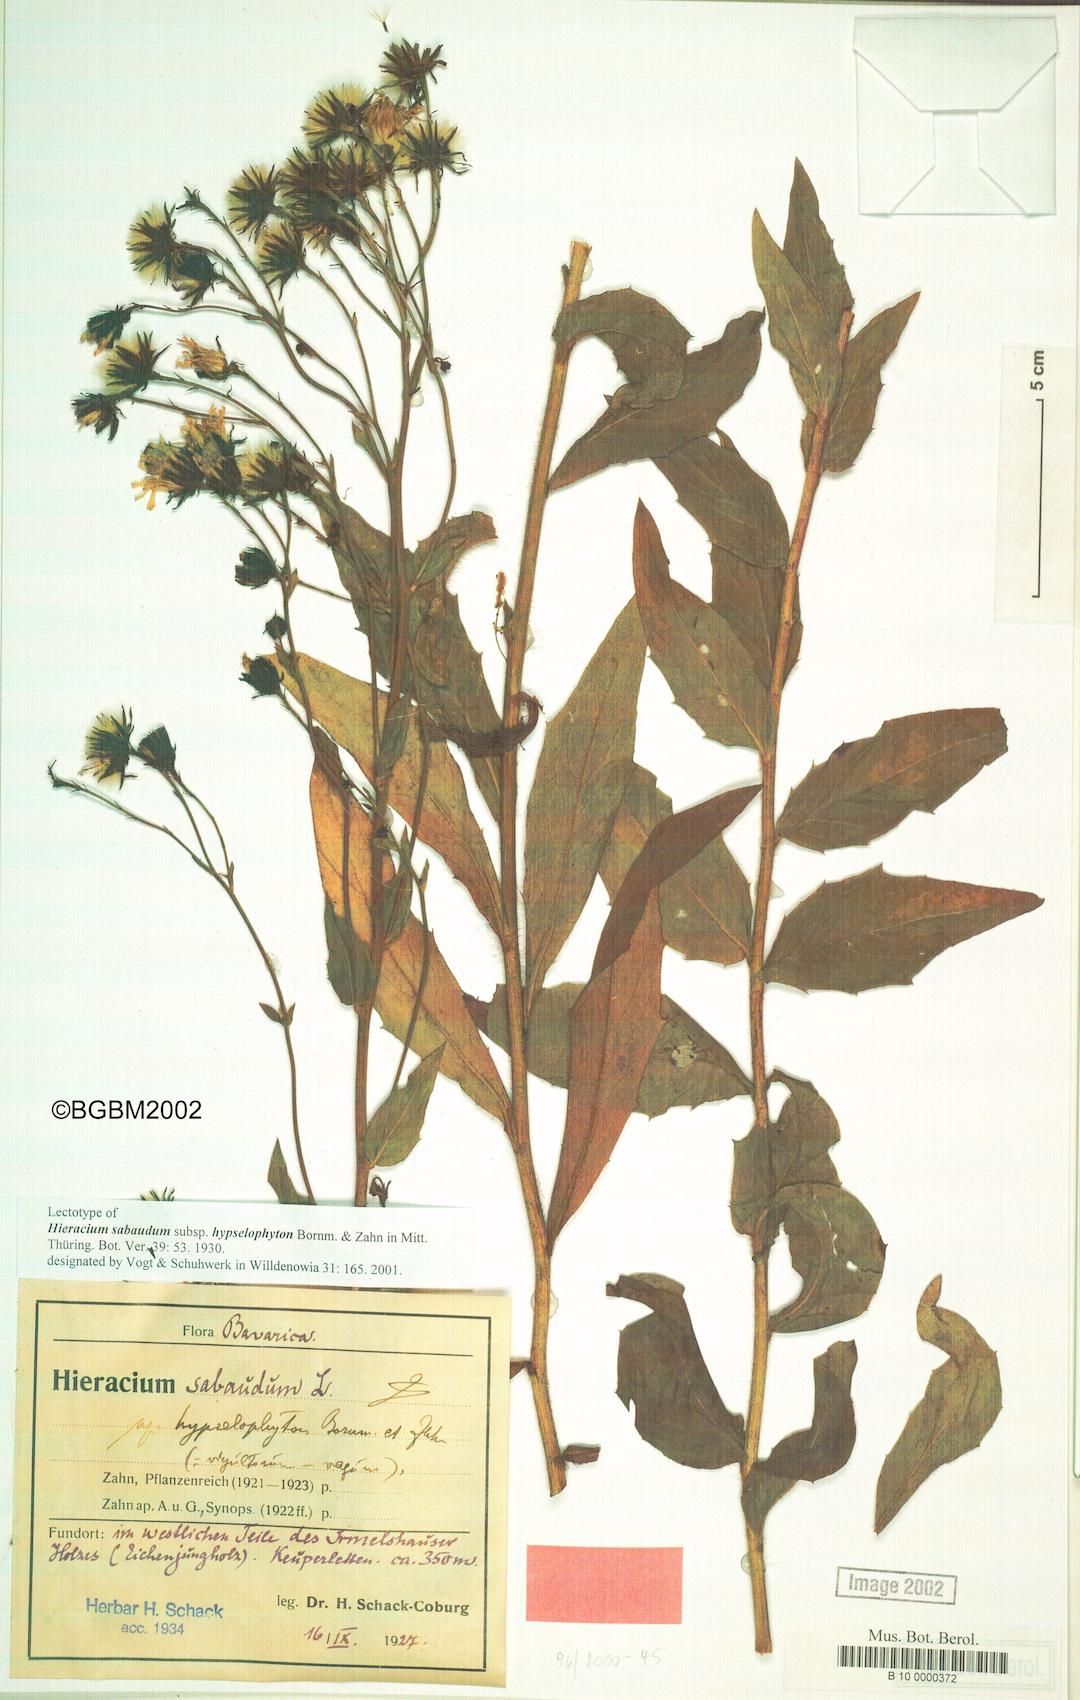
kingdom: Plantae
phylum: Tracheophyta
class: Magnoliopsida
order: Asterales
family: Asteraceae
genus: Hieracium
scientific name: Hieracium sabaudum
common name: New england hawkweed
